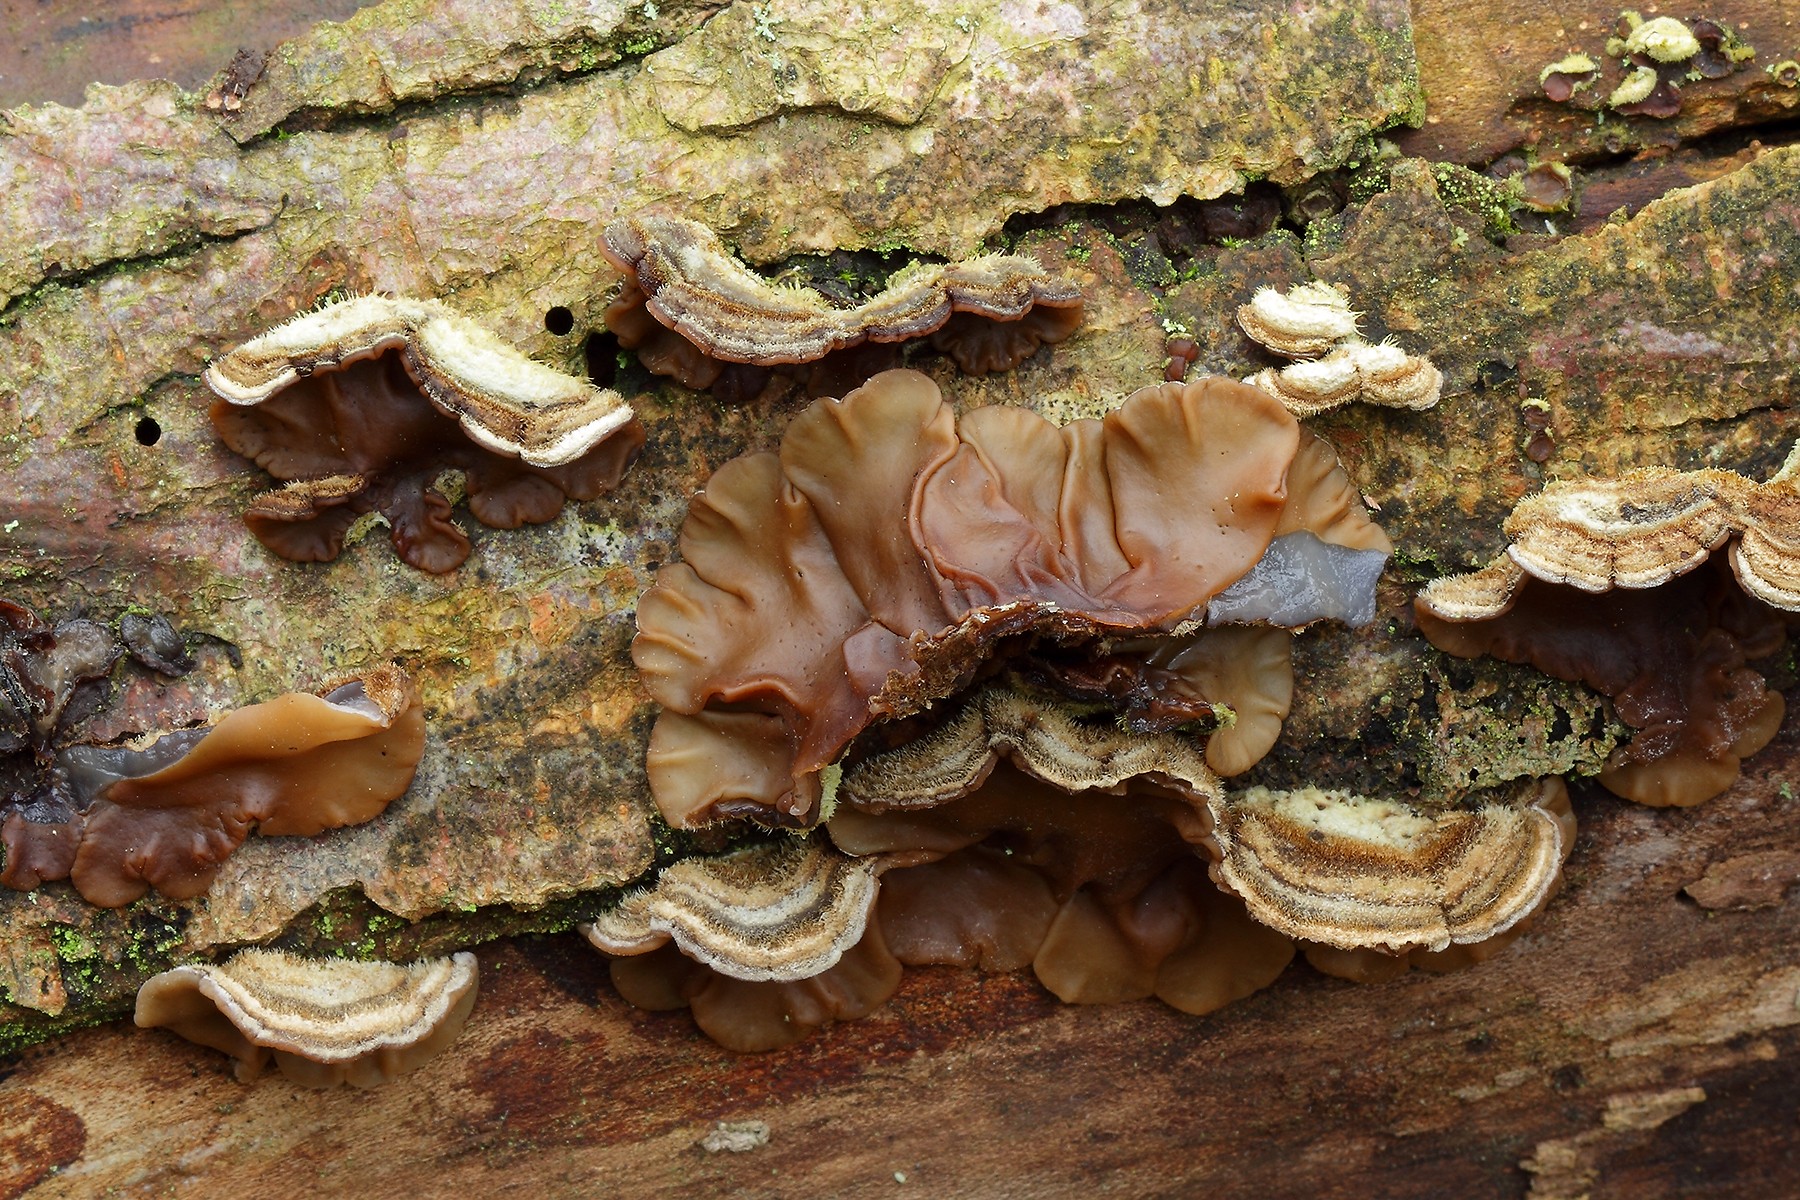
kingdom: Fungi
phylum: Basidiomycota
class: Agaricomycetes
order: Auriculariales
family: Auriculariaceae
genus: Auricularia
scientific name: Auricularia mesenterica
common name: håret judasøre
